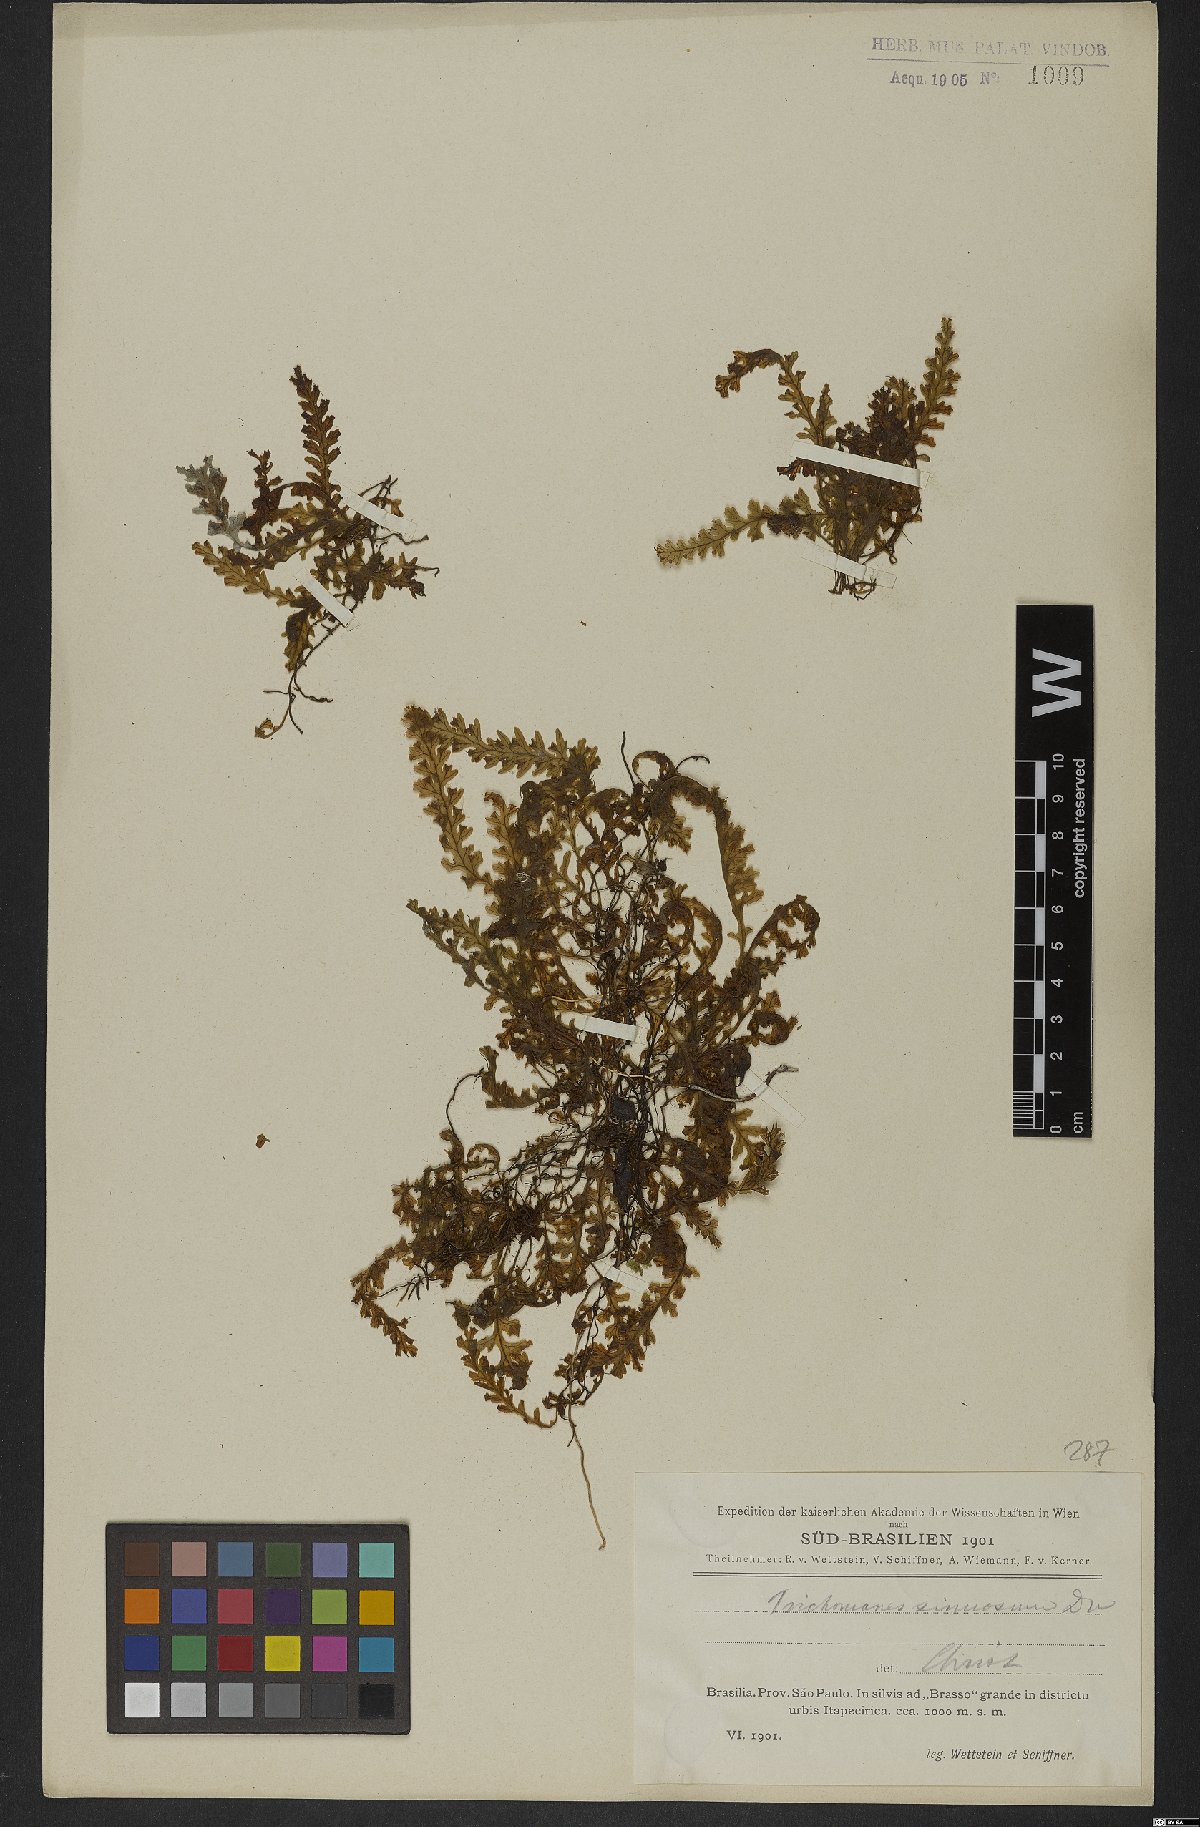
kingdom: Plantae
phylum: Tracheophyta
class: Polypodiopsida
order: Hymenophyllales
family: Hymenophyllaceae
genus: Trichomanes
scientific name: Trichomanes polypodioides
